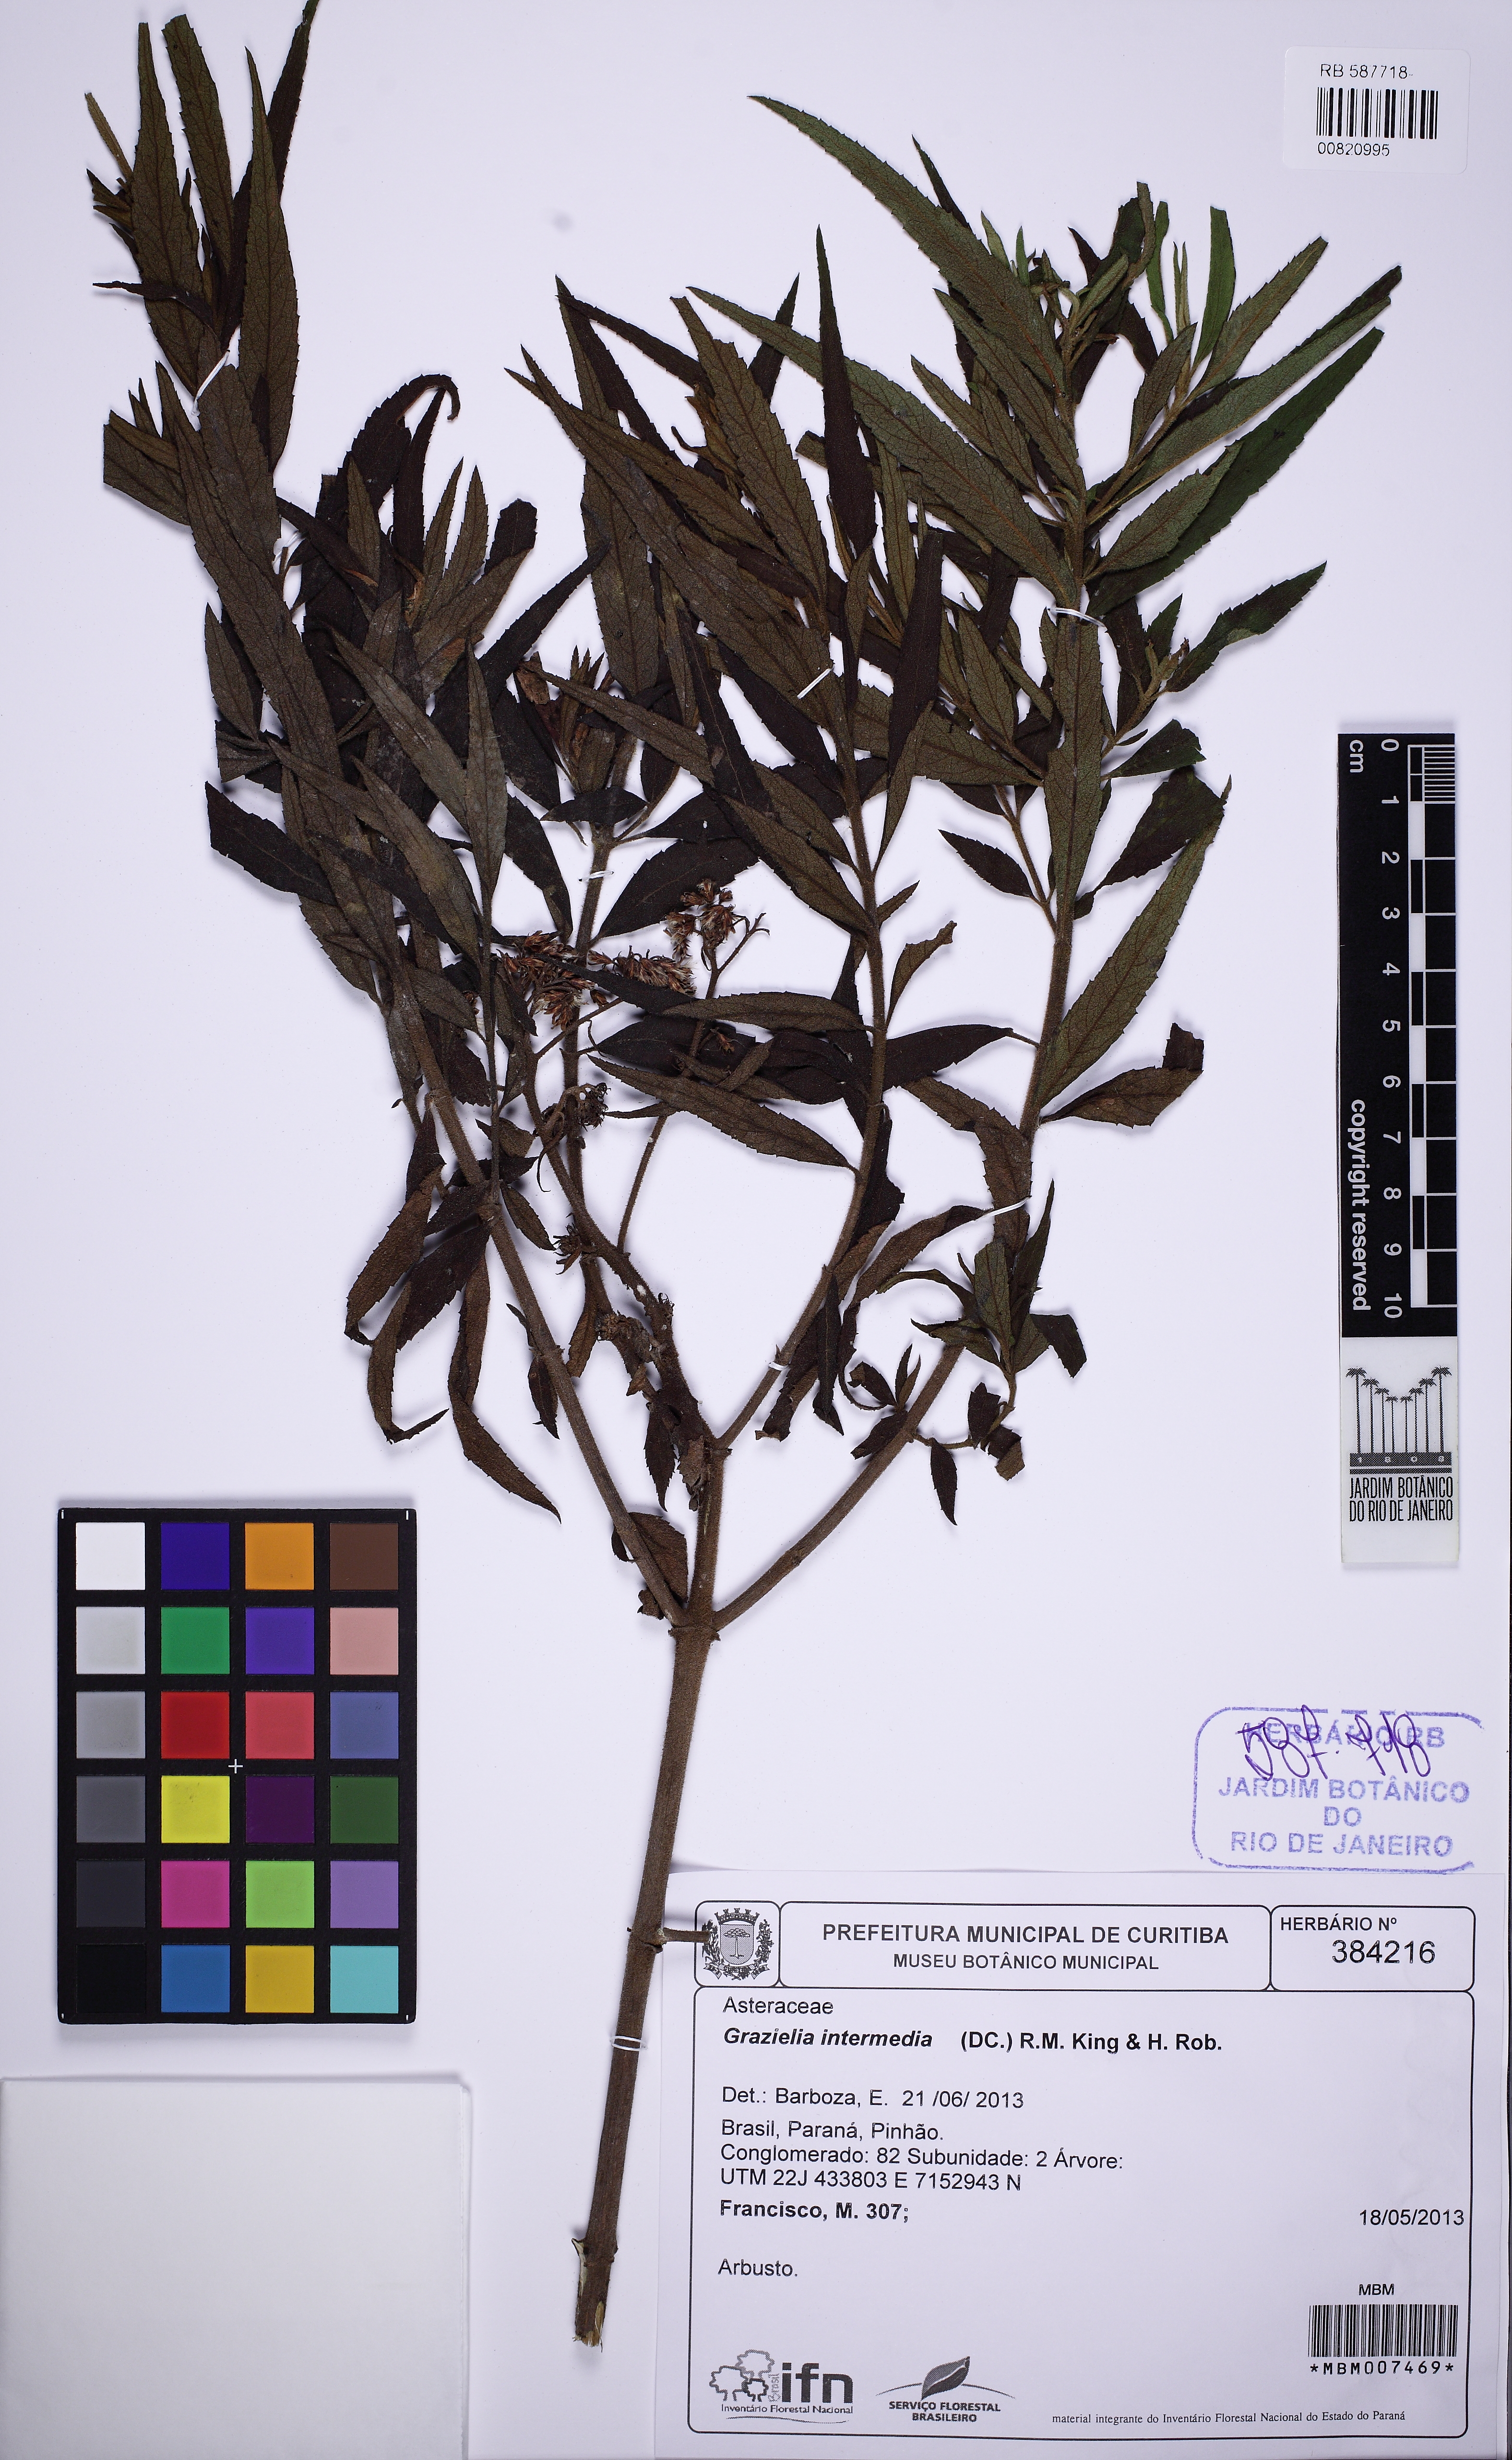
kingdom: Plantae
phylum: Tracheophyta
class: Magnoliopsida
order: Asterales
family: Asteraceae
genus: Grazielia
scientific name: Grazielia intermedia
